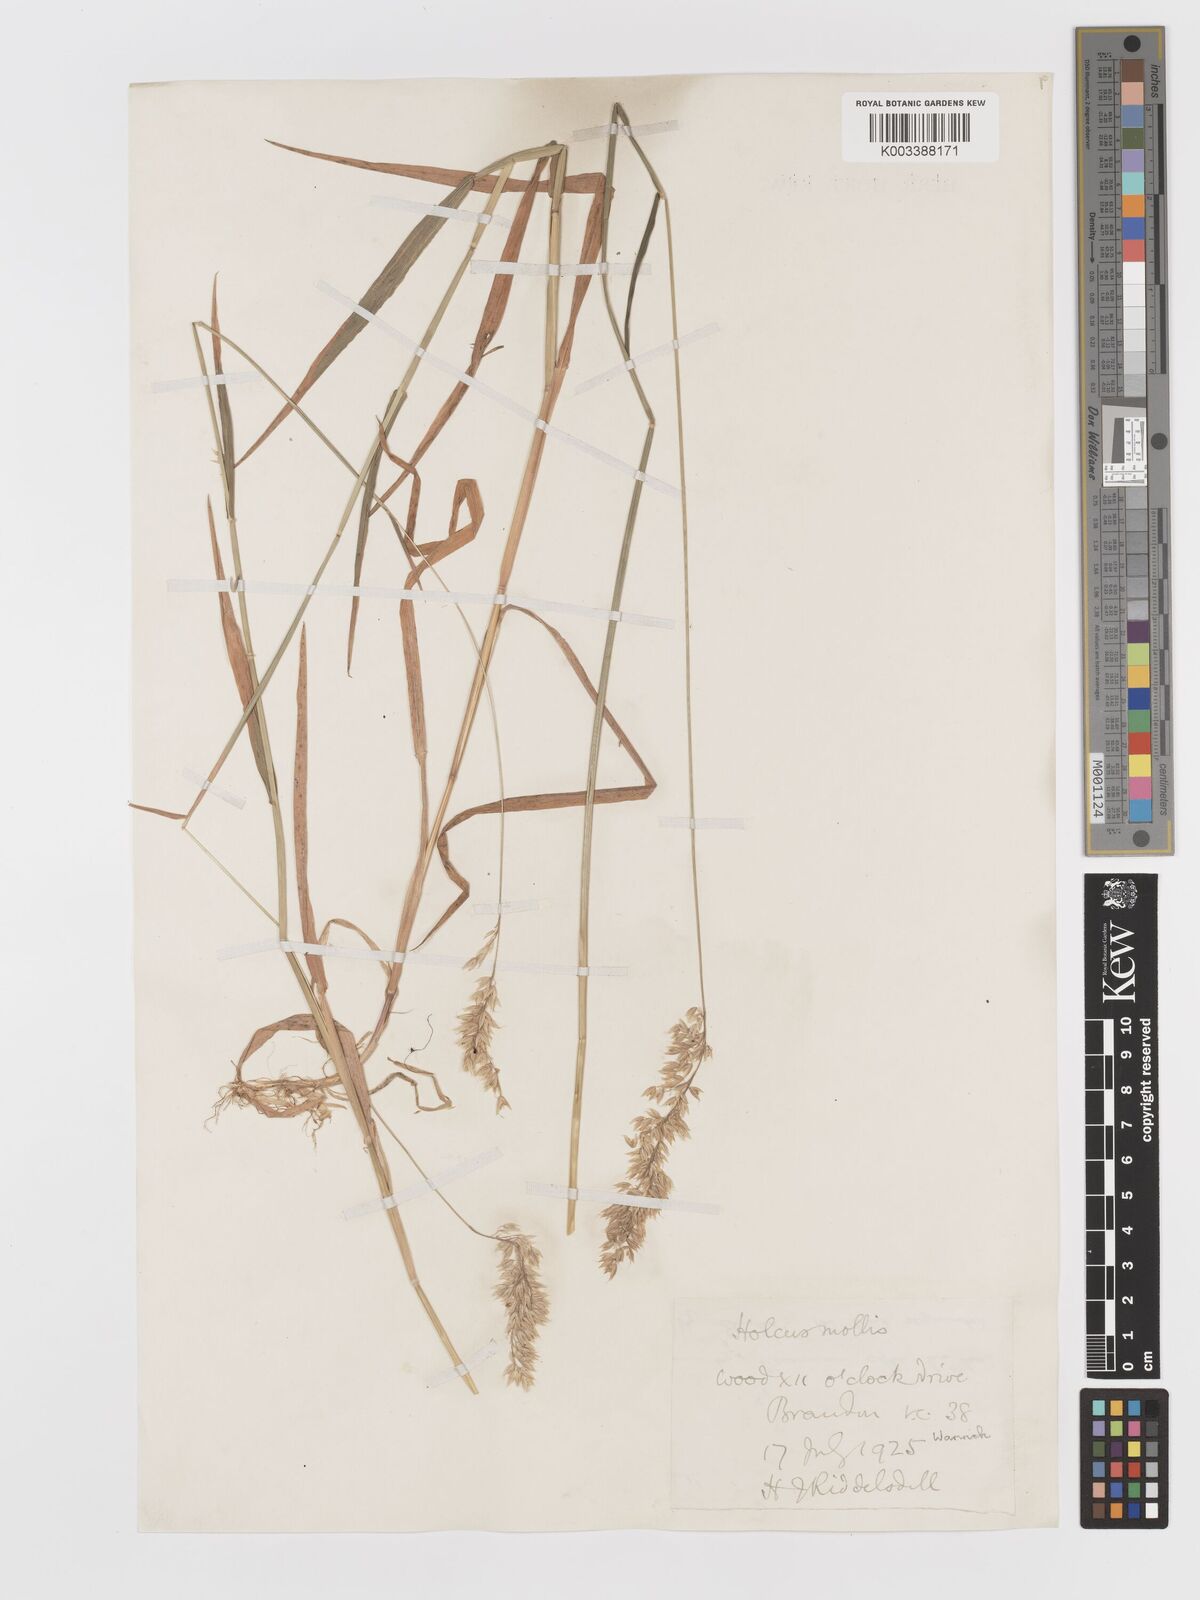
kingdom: Plantae
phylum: Tracheophyta
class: Liliopsida
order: Poales
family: Poaceae
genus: Holcus
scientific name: Holcus mollis
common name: Creeping velvetgrass
